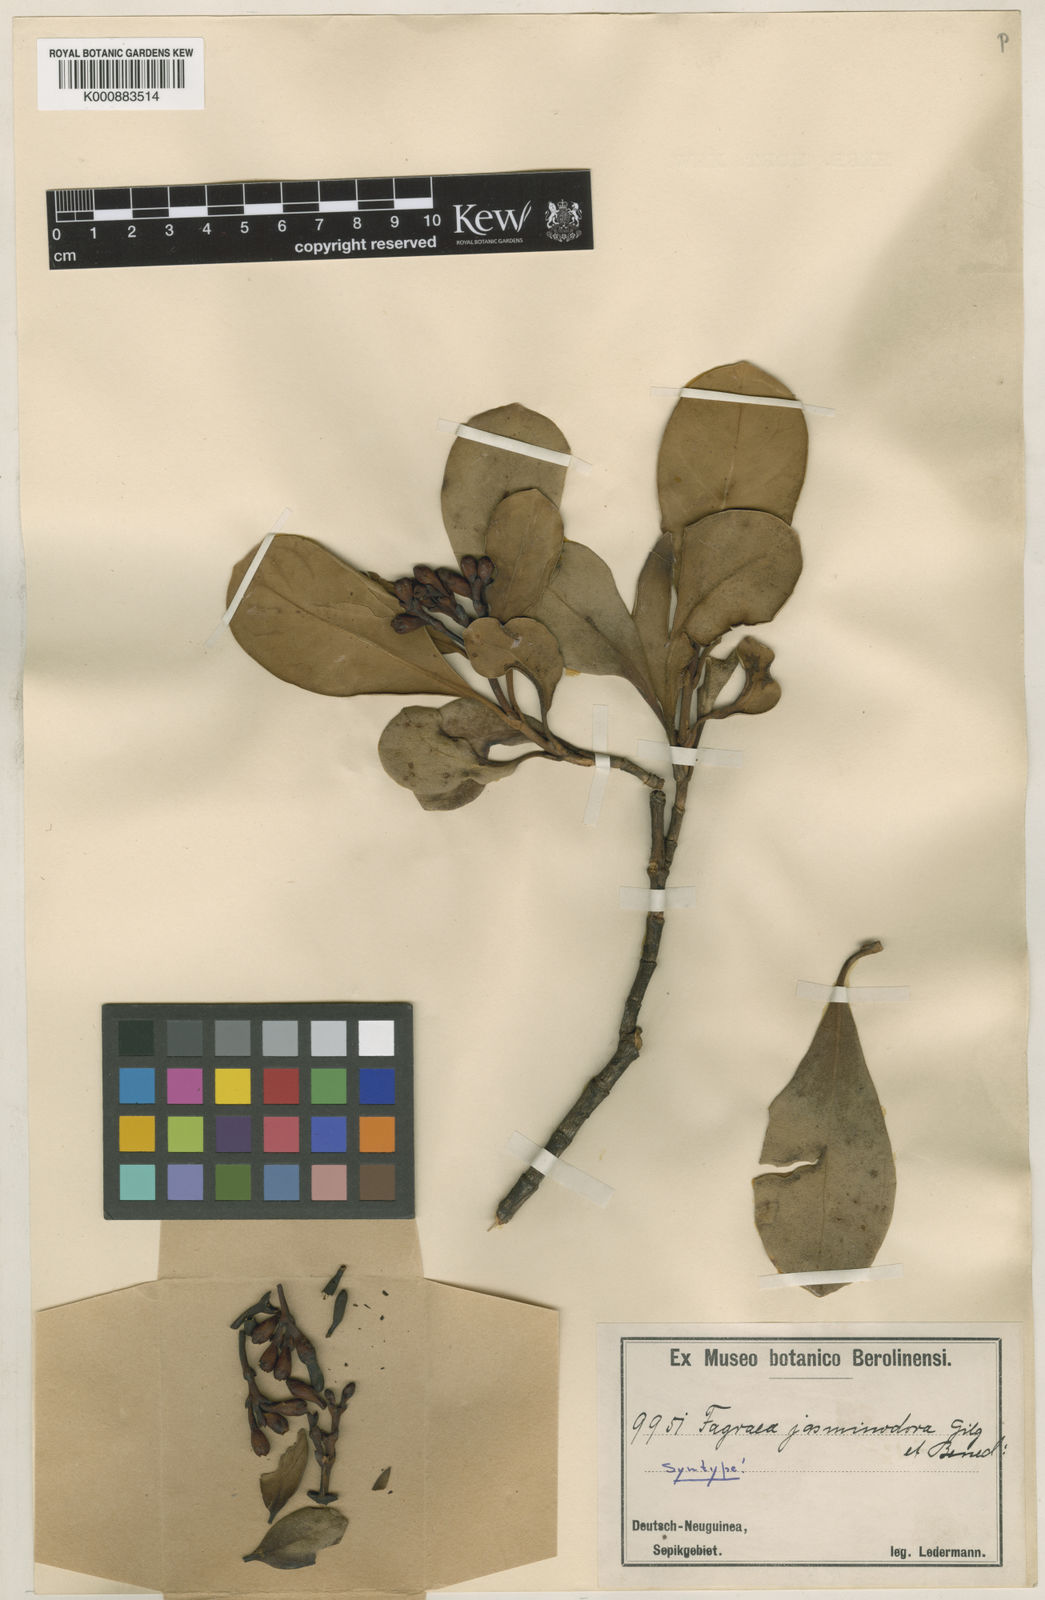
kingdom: Plantae
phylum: Tracheophyta
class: Magnoliopsida
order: Gentianales
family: Gentianaceae
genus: Fagraea
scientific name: Fagraea bodenii
